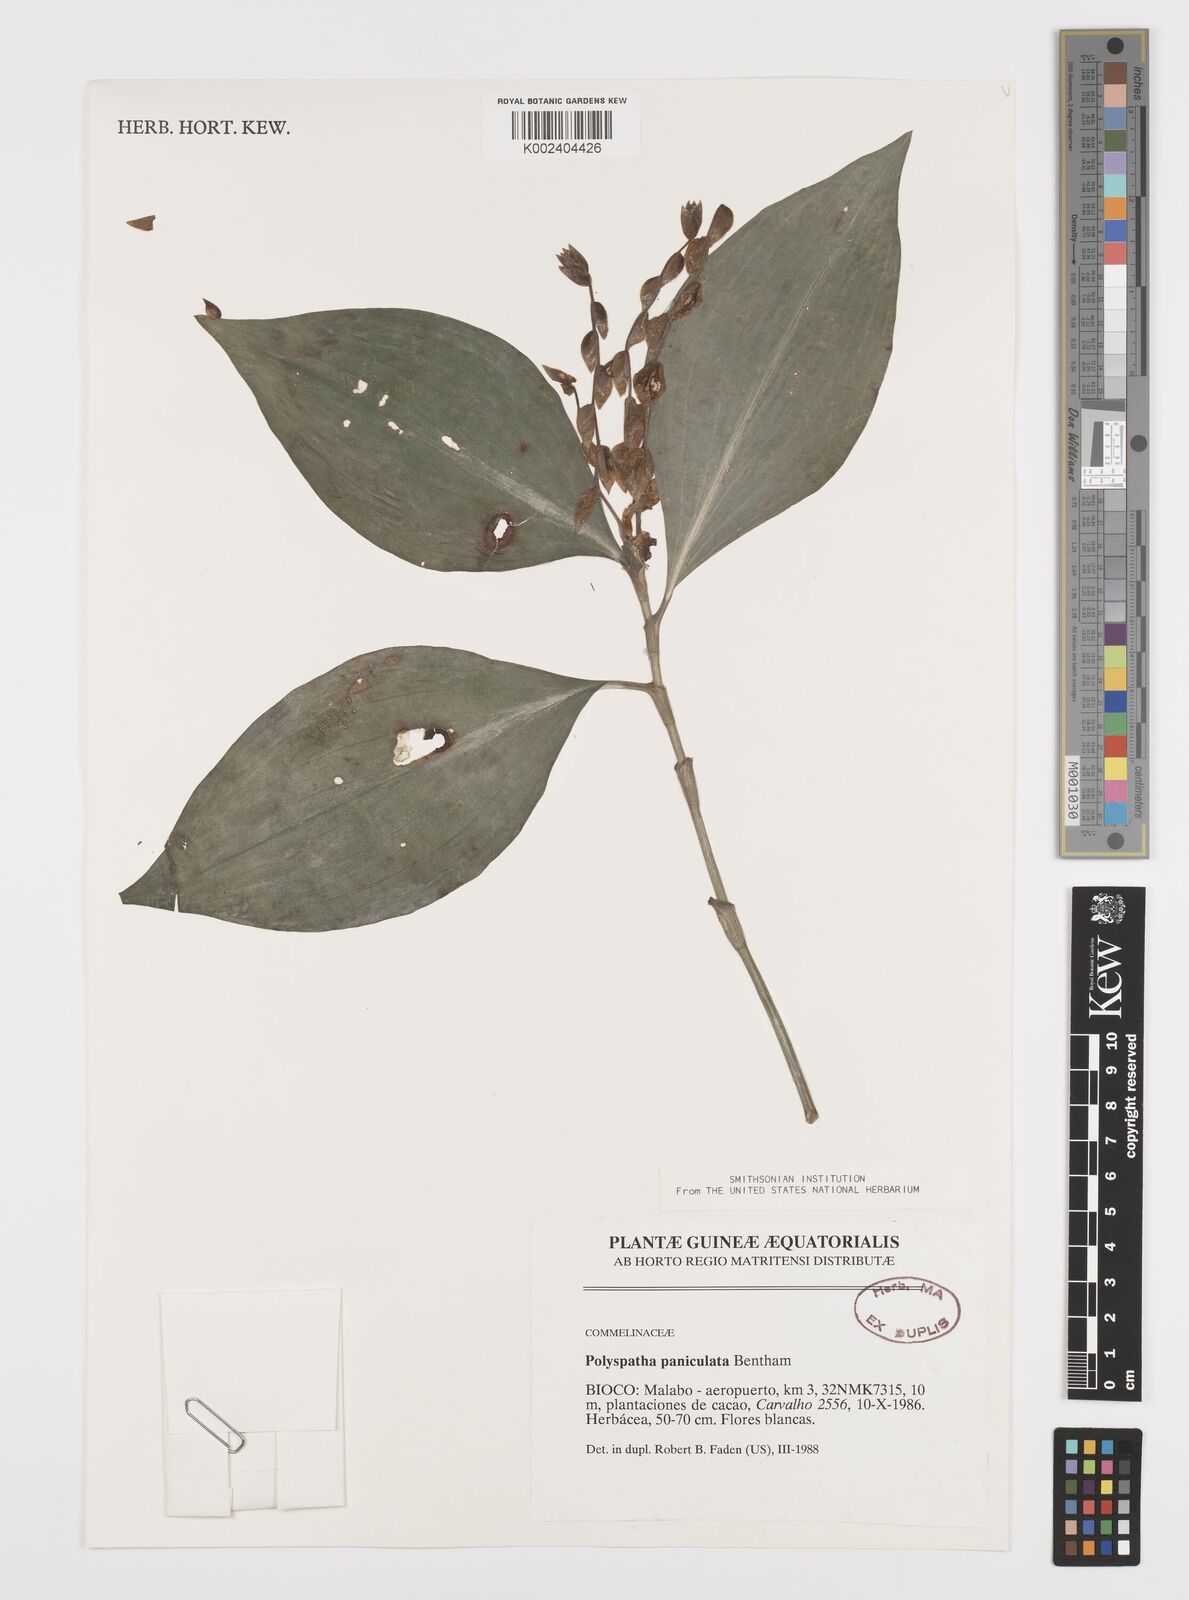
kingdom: Plantae
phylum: Tracheophyta
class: Liliopsida
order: Commelinales
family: Commelinaceae
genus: Polyspatha
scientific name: Polyspatha paniculata
